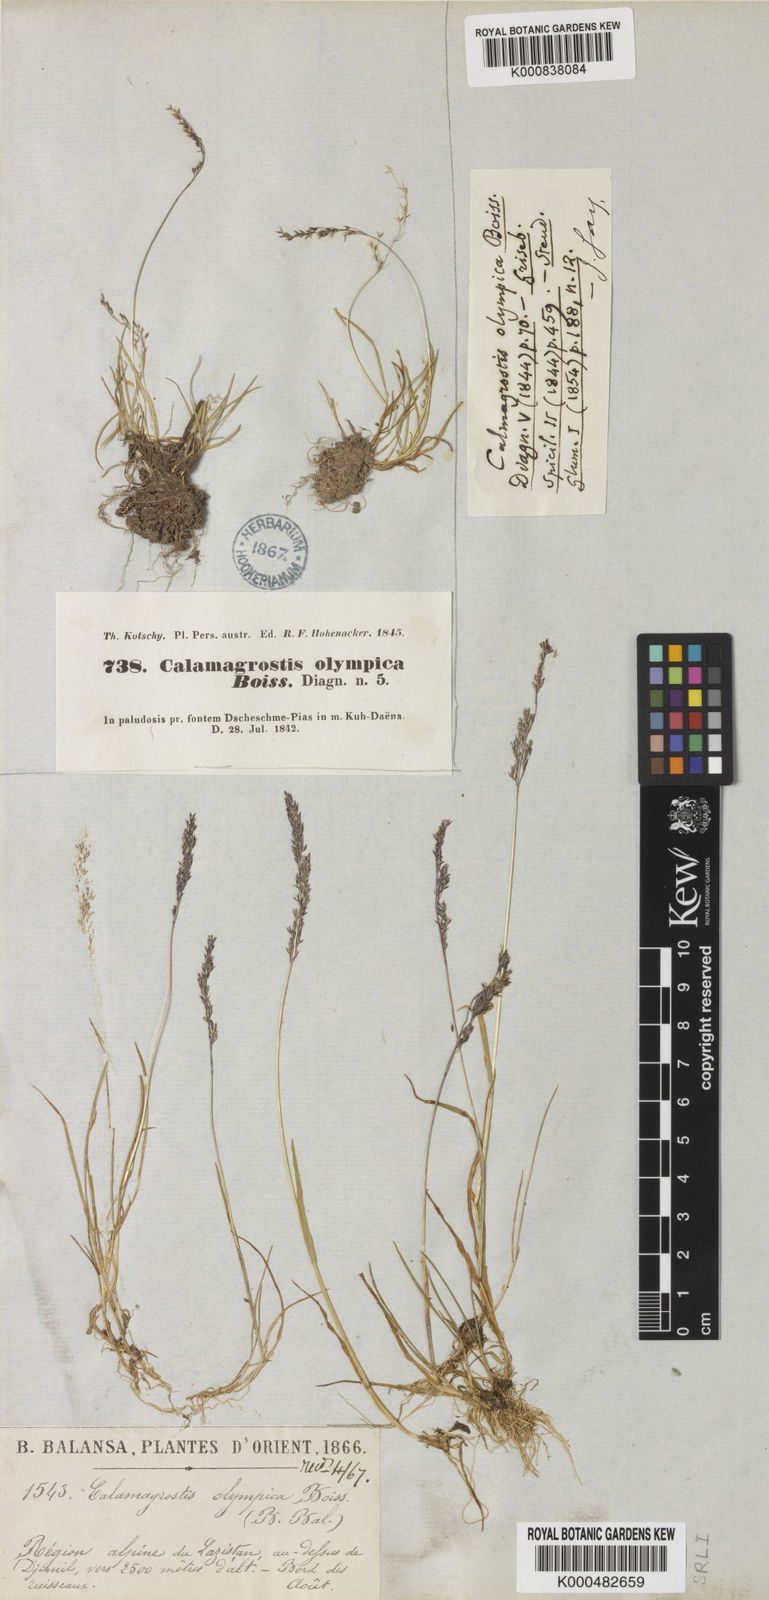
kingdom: Plantae
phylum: Tracheophyta
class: Liliopsida
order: Poales
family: Poaceae
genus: Agrostis
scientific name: Agrostis olympica
